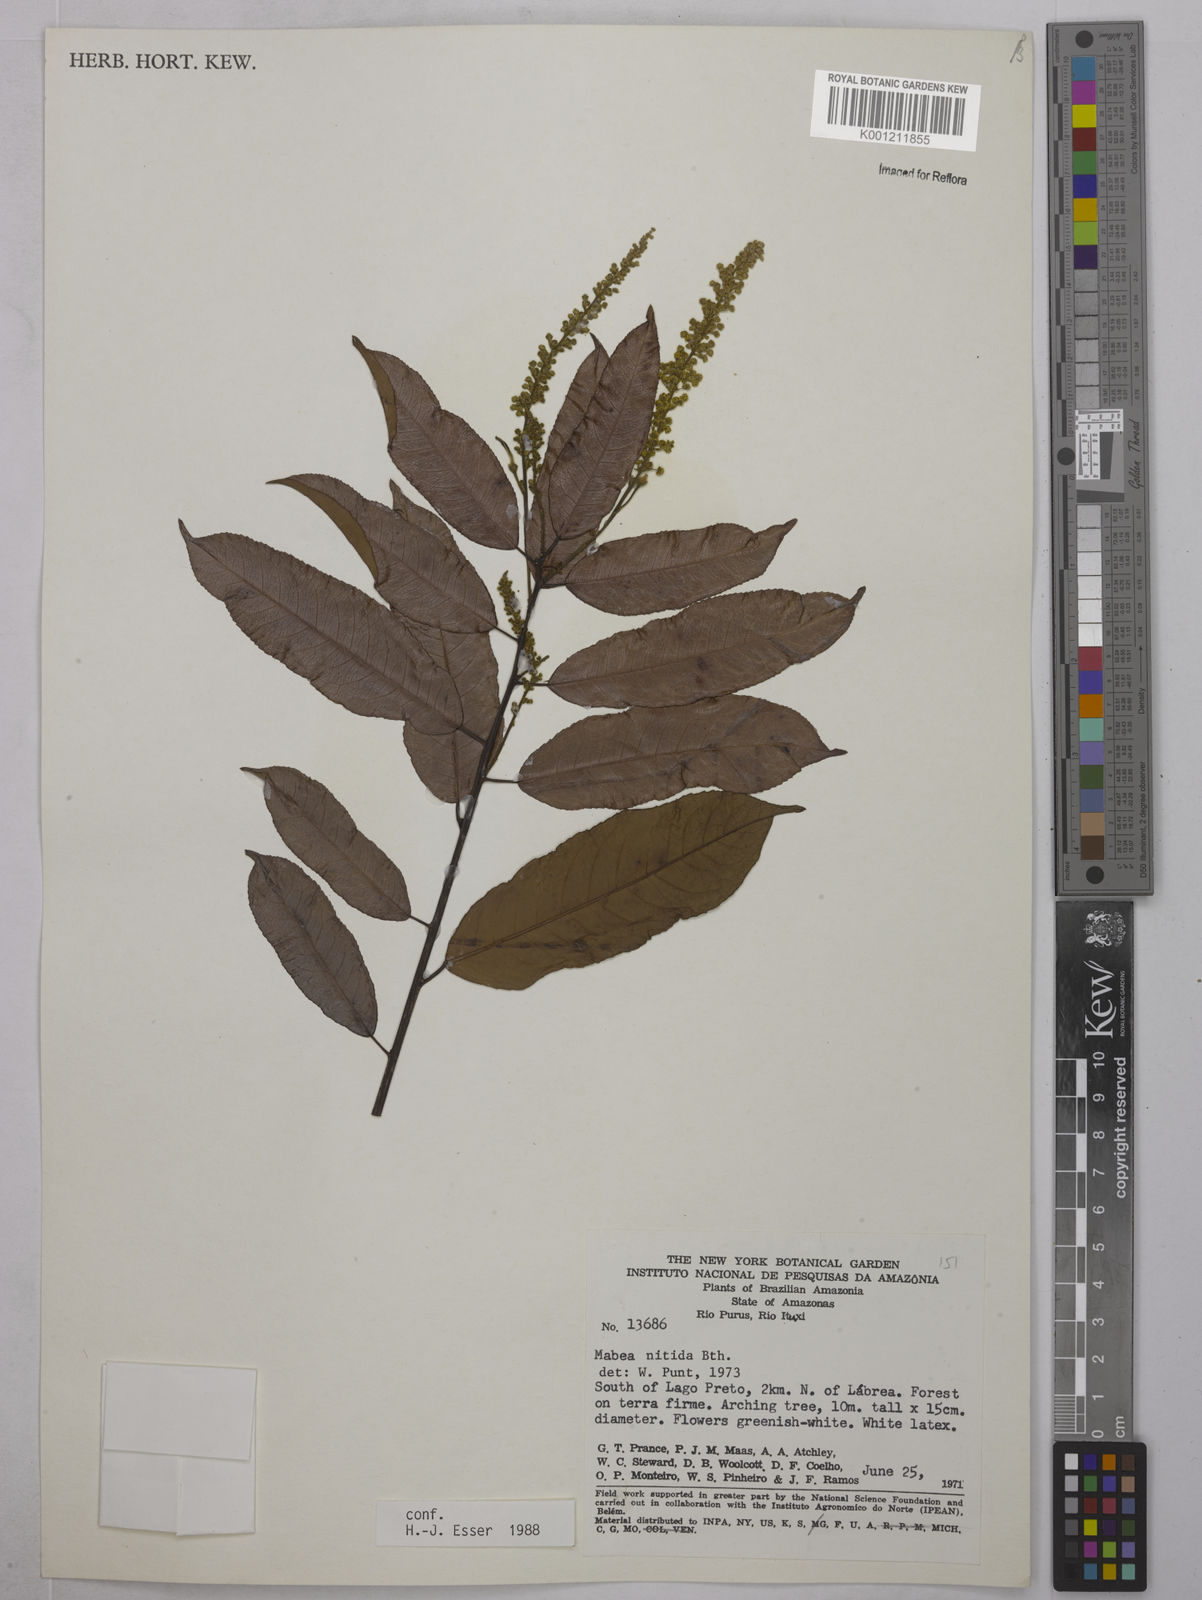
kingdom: Plantae
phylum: Tracheophyta
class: Magnoliopsida
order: Malpighiales
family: Euphorbiaceae
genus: Mabea
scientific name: Mabea nitida
